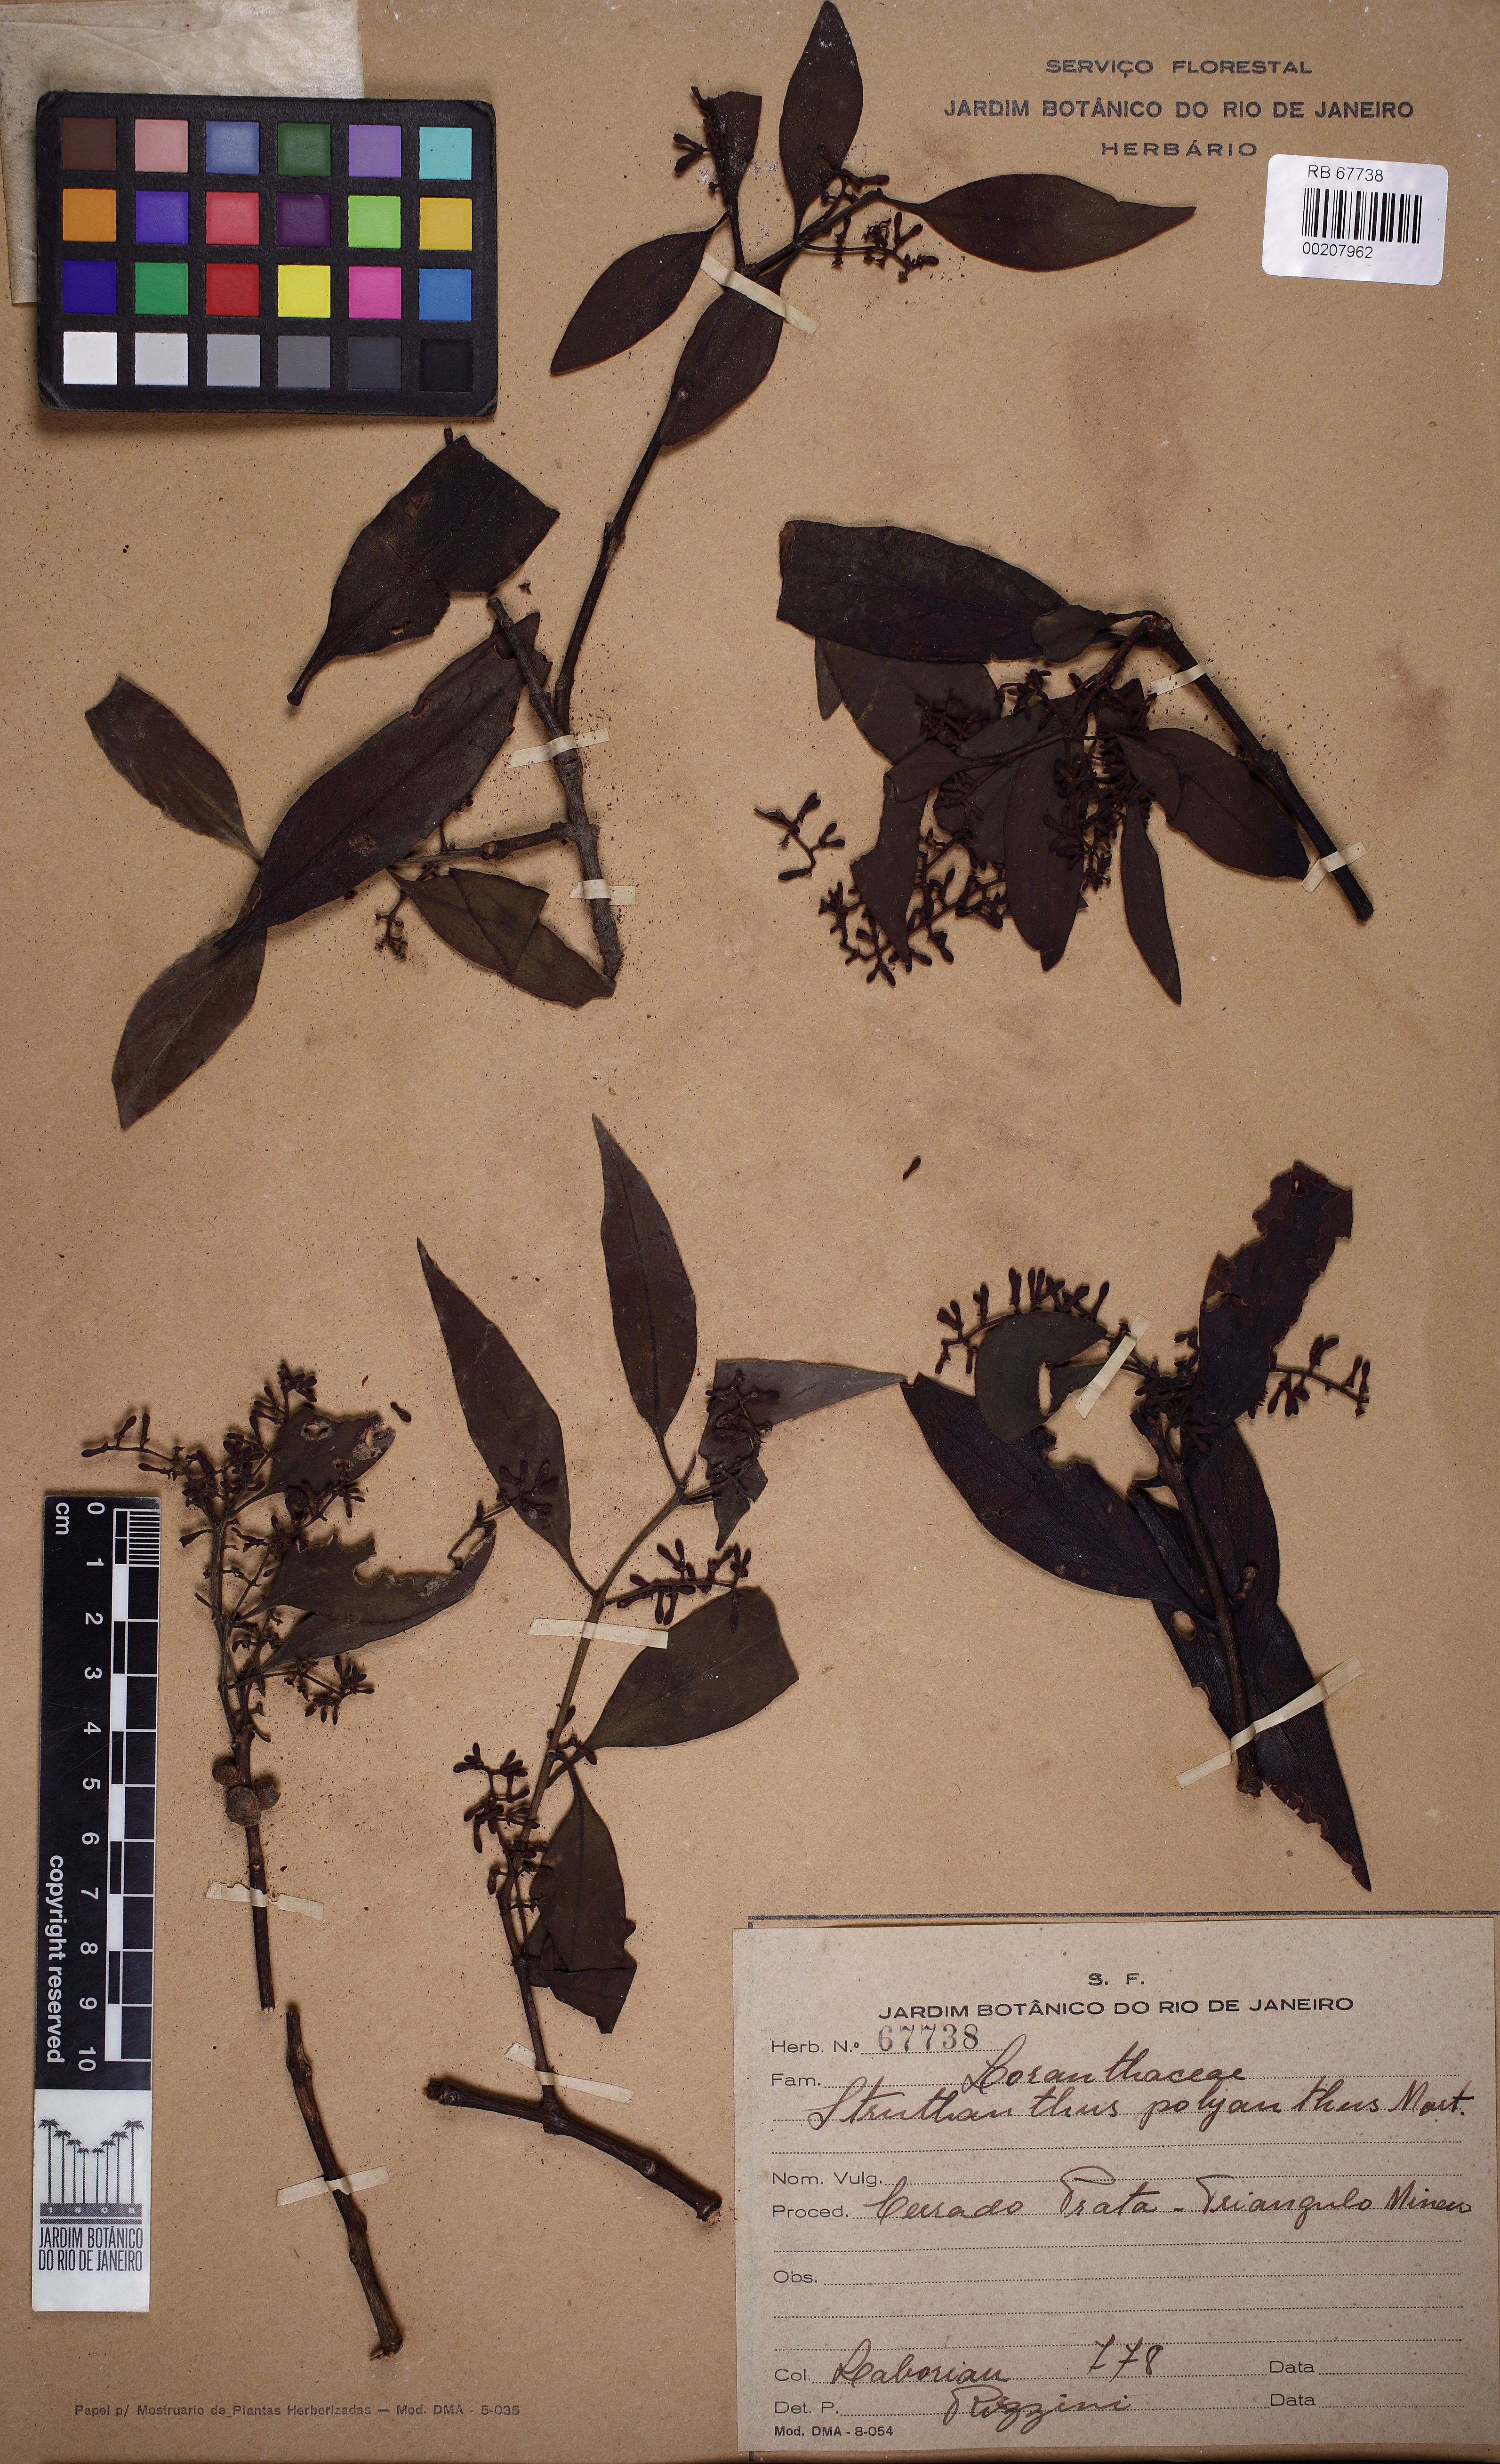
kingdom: Plantae
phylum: Tracheophyta
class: Magnoliopsida
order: Santalales
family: Loranthaceae
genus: Struthanthus
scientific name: Struthanthus polyanthus
